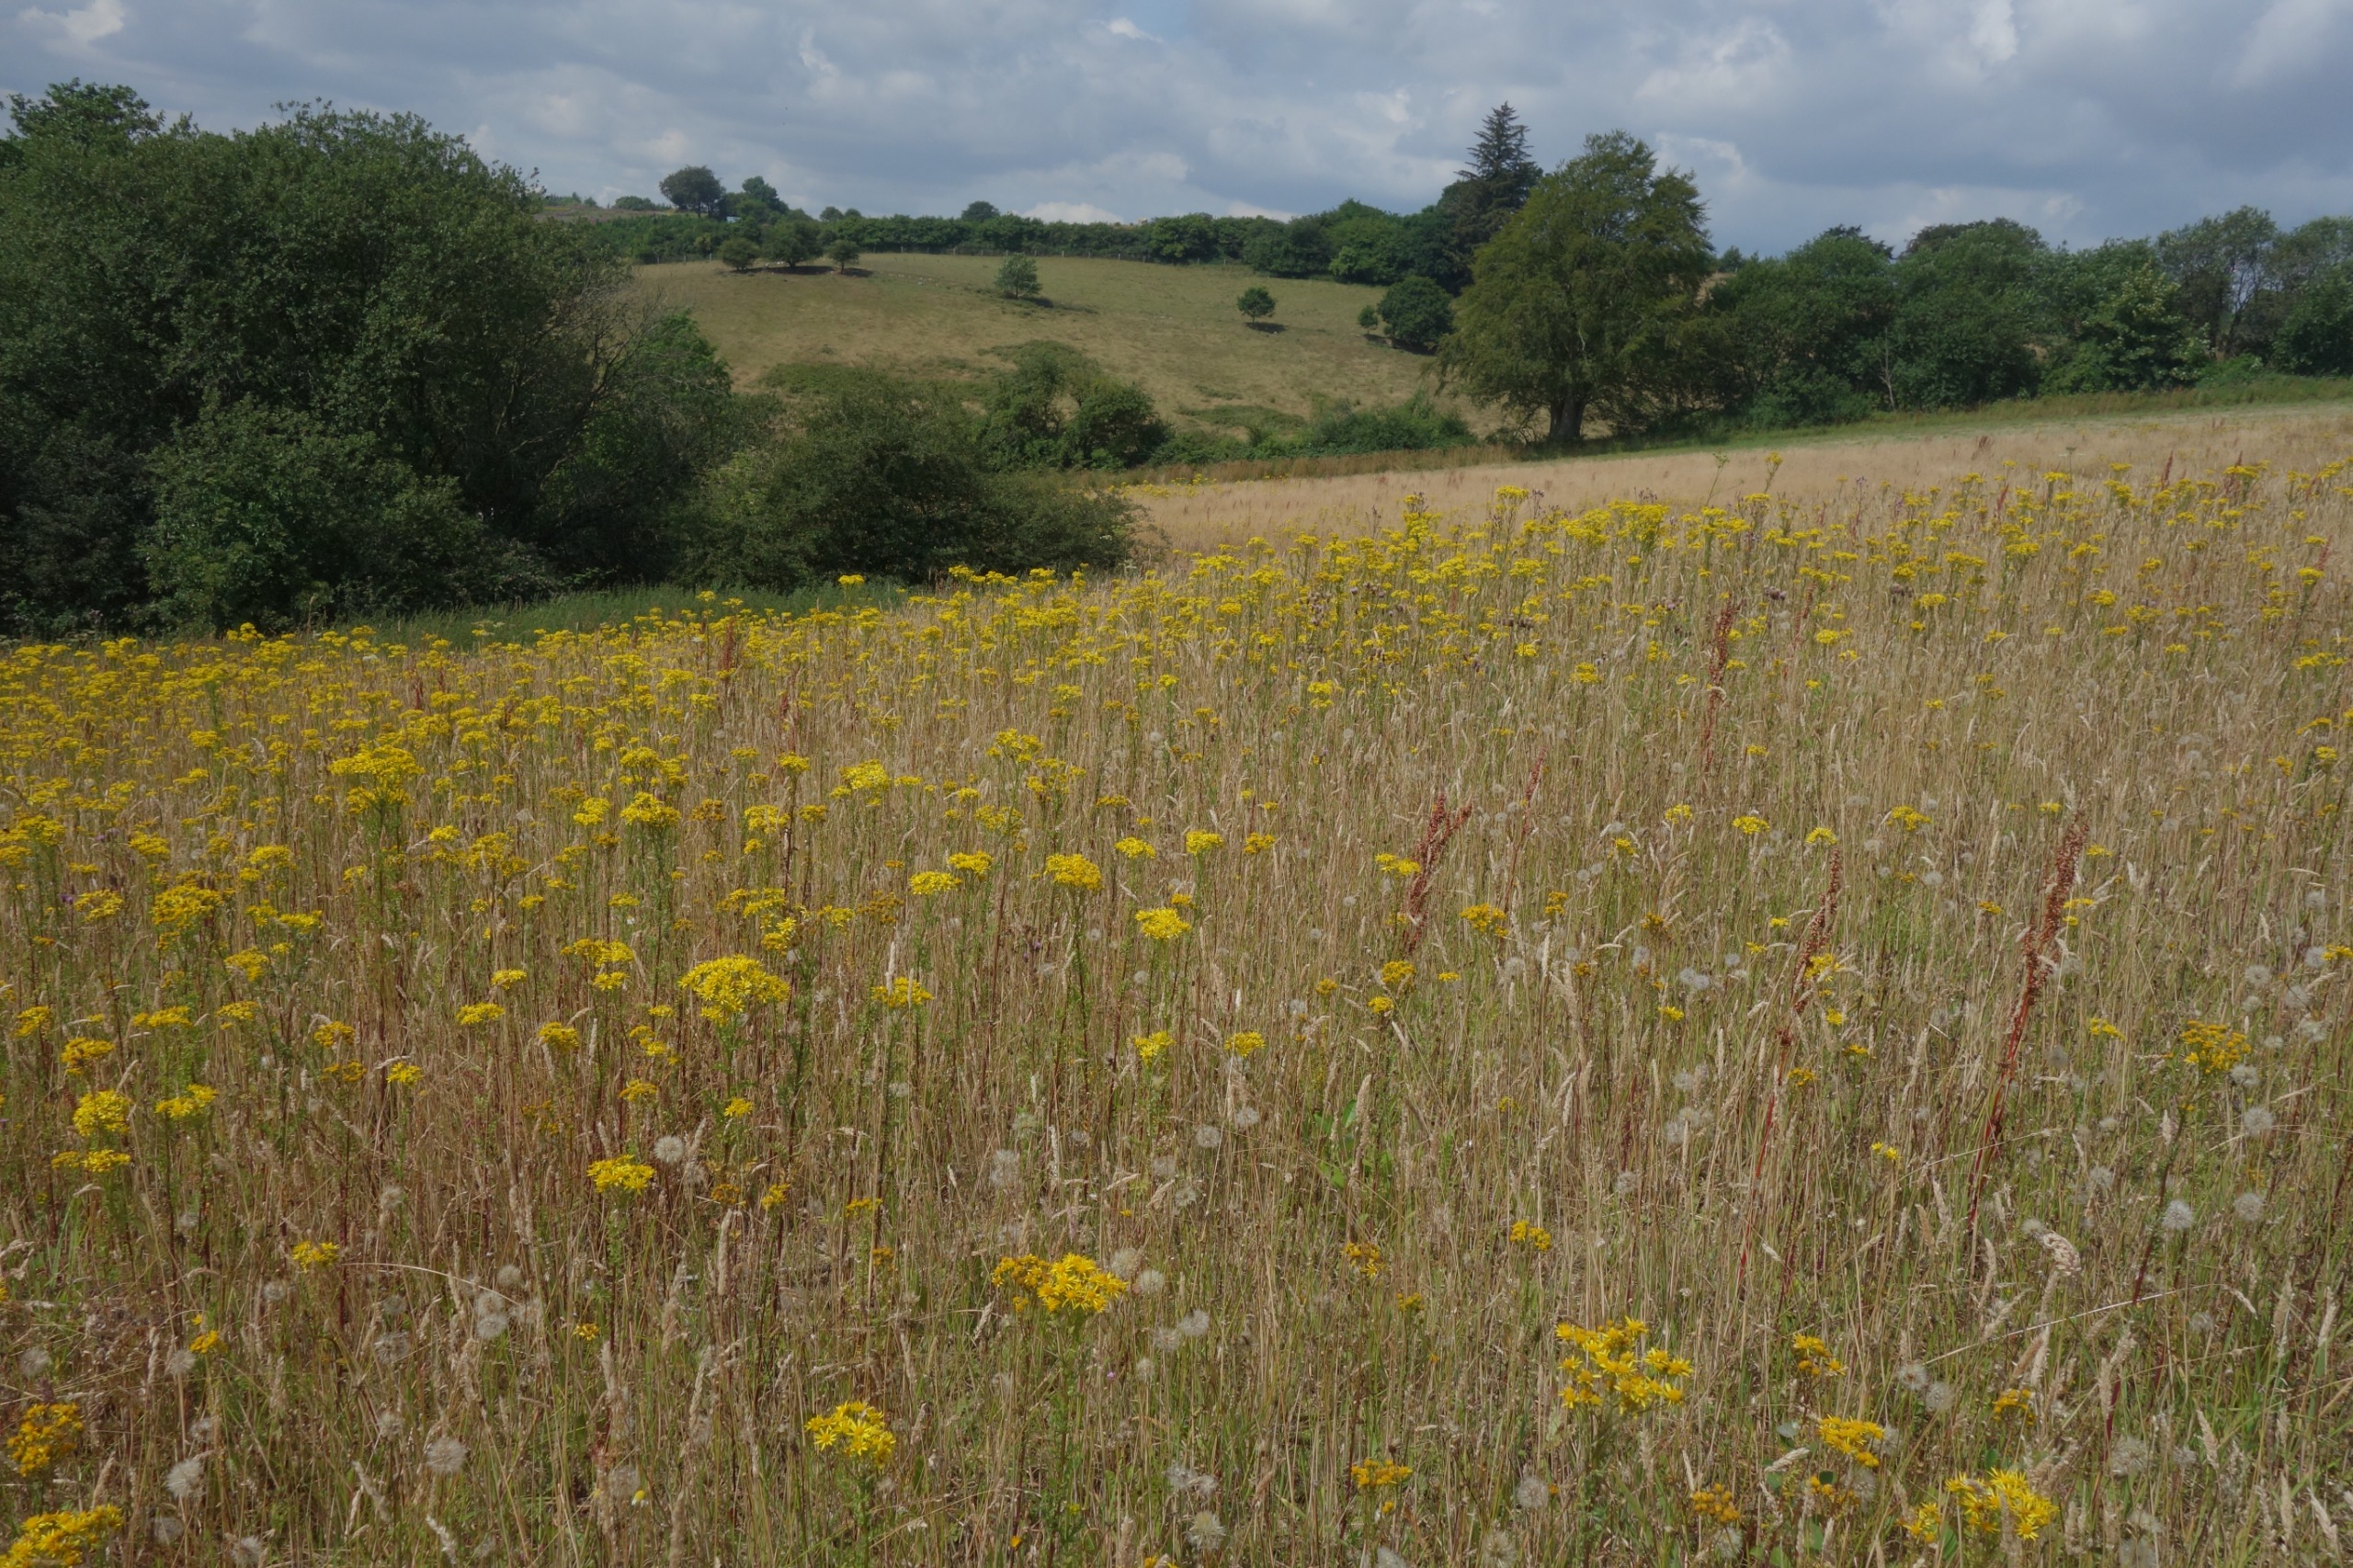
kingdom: Plantae
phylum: Tracheophyta
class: Magnoliopsida
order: Asterales
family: Asteraceae
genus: Jacobaea
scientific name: Jacobaea vulgaris
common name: Eng-brandbæger
